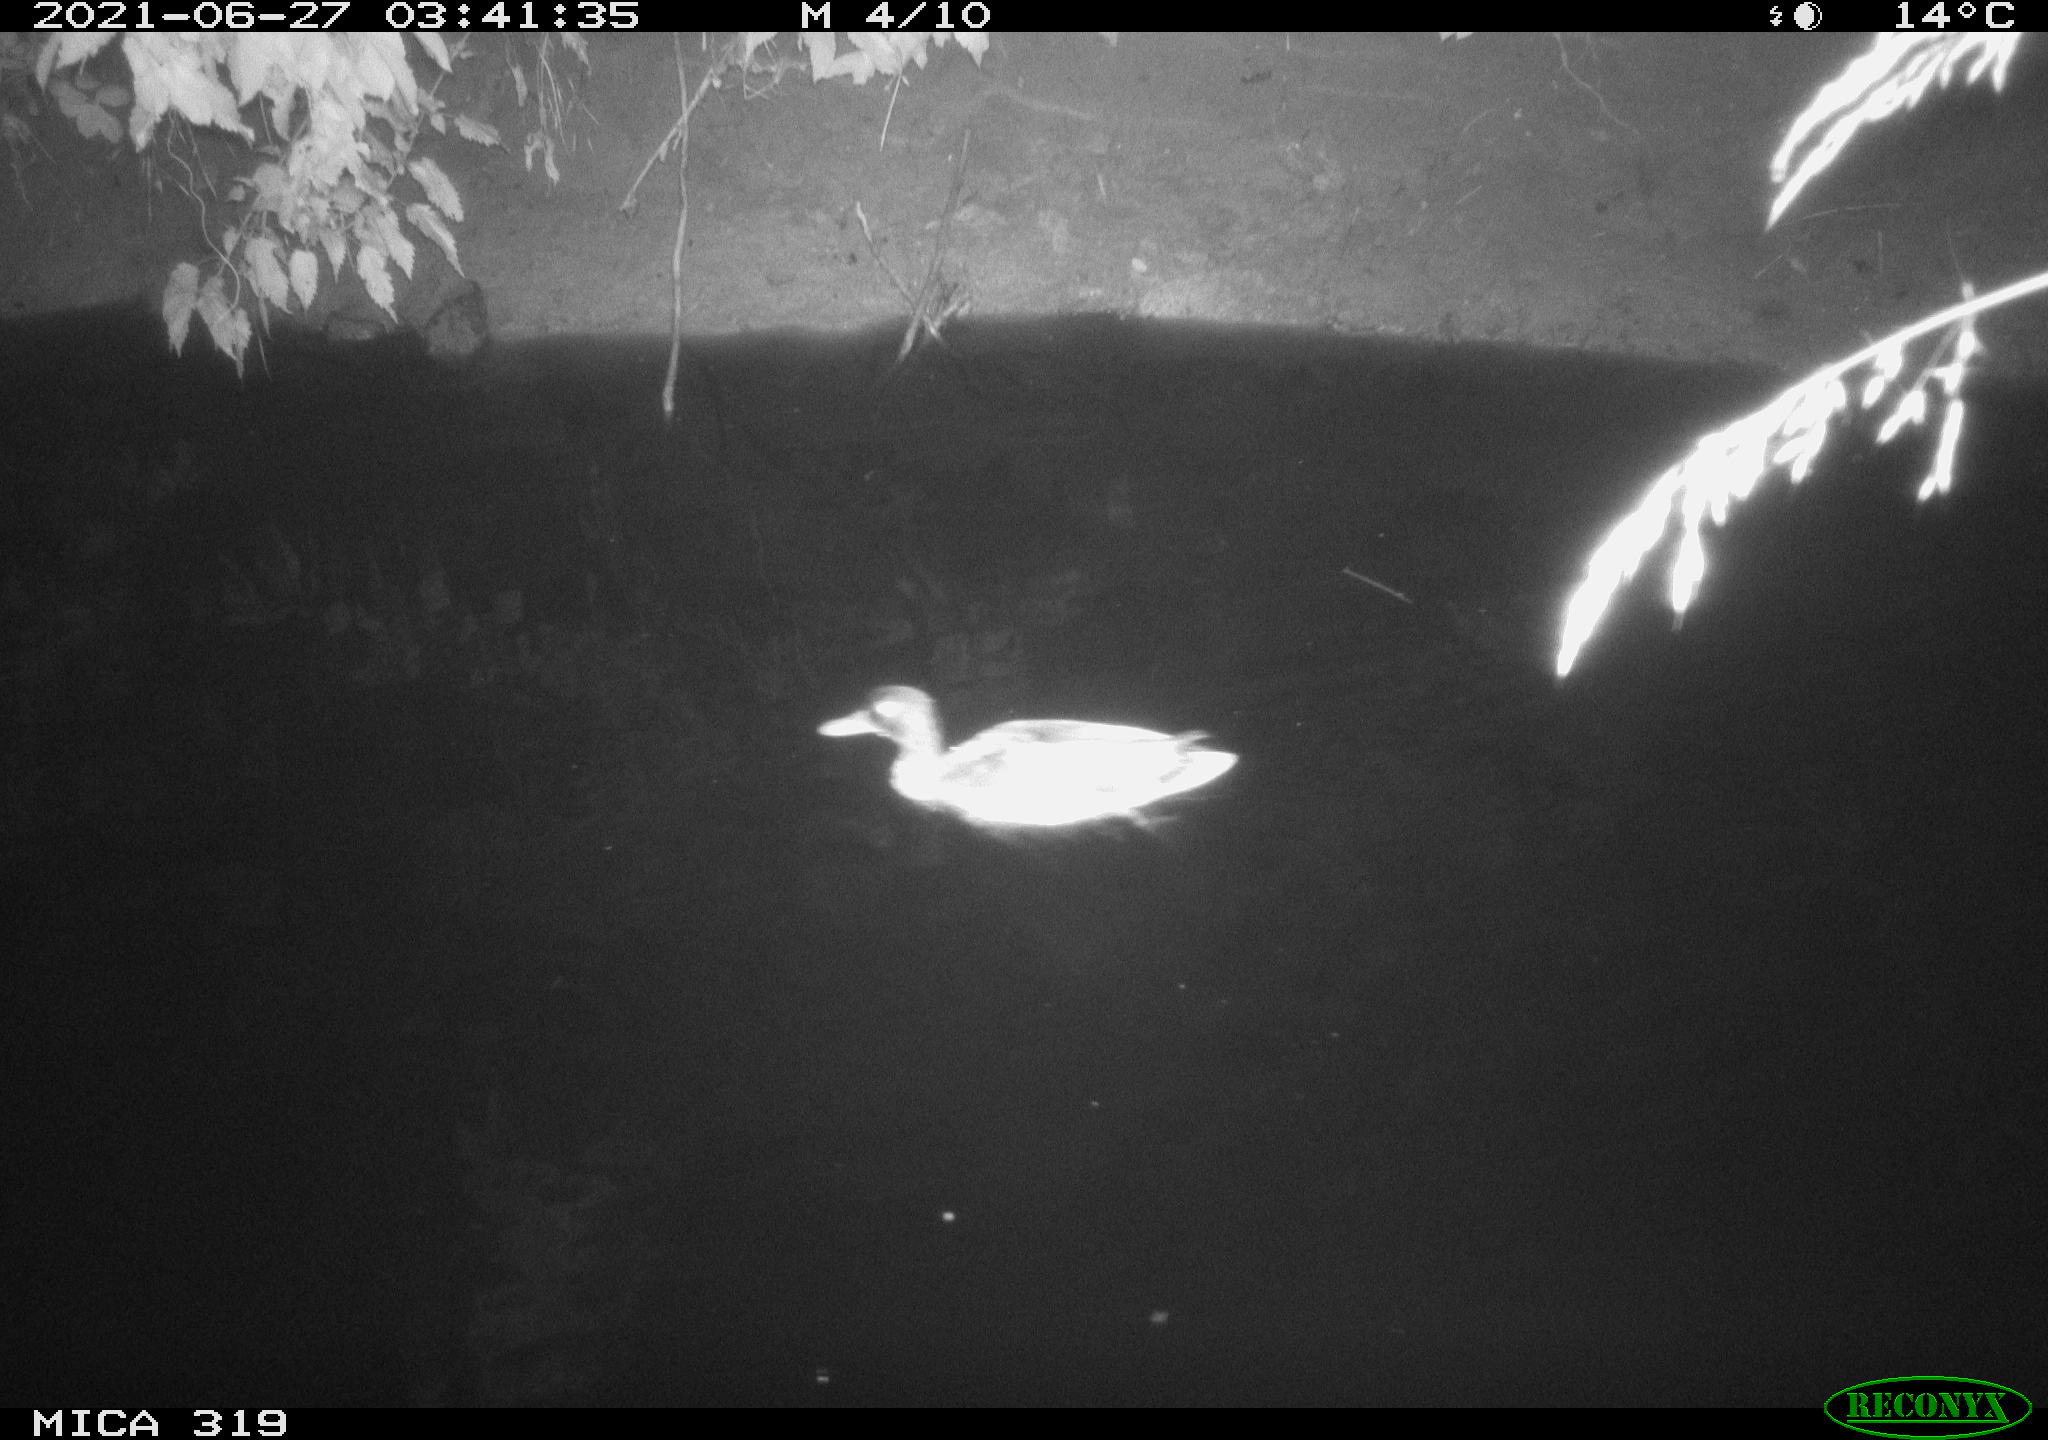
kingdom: Animalia
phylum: Chordata
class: Aves
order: Anseriformes
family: Anatidae
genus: Anas
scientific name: Anas platyrhynchos
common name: Mallard
